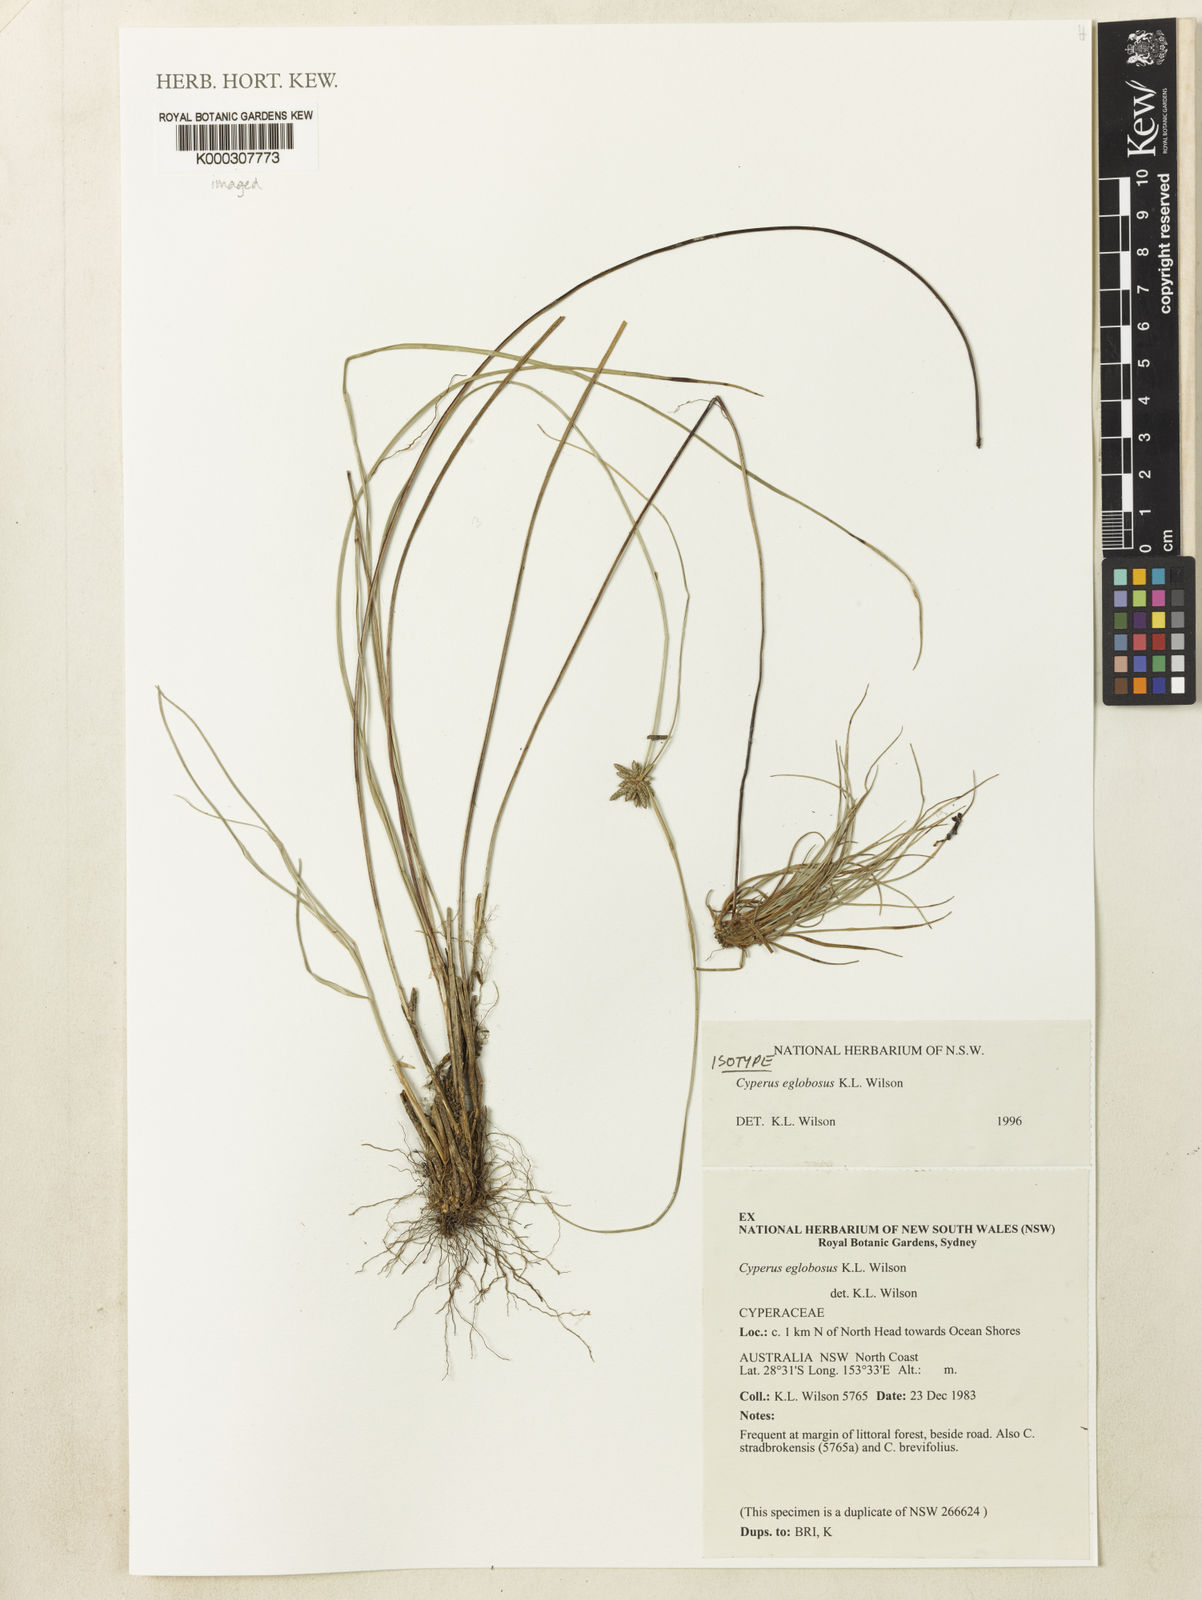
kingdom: Plantae
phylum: Tracheophyta
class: Liliopsida
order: Poales
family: Cyperaceae
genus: Cyperus
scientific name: Cyperus eglobosus
